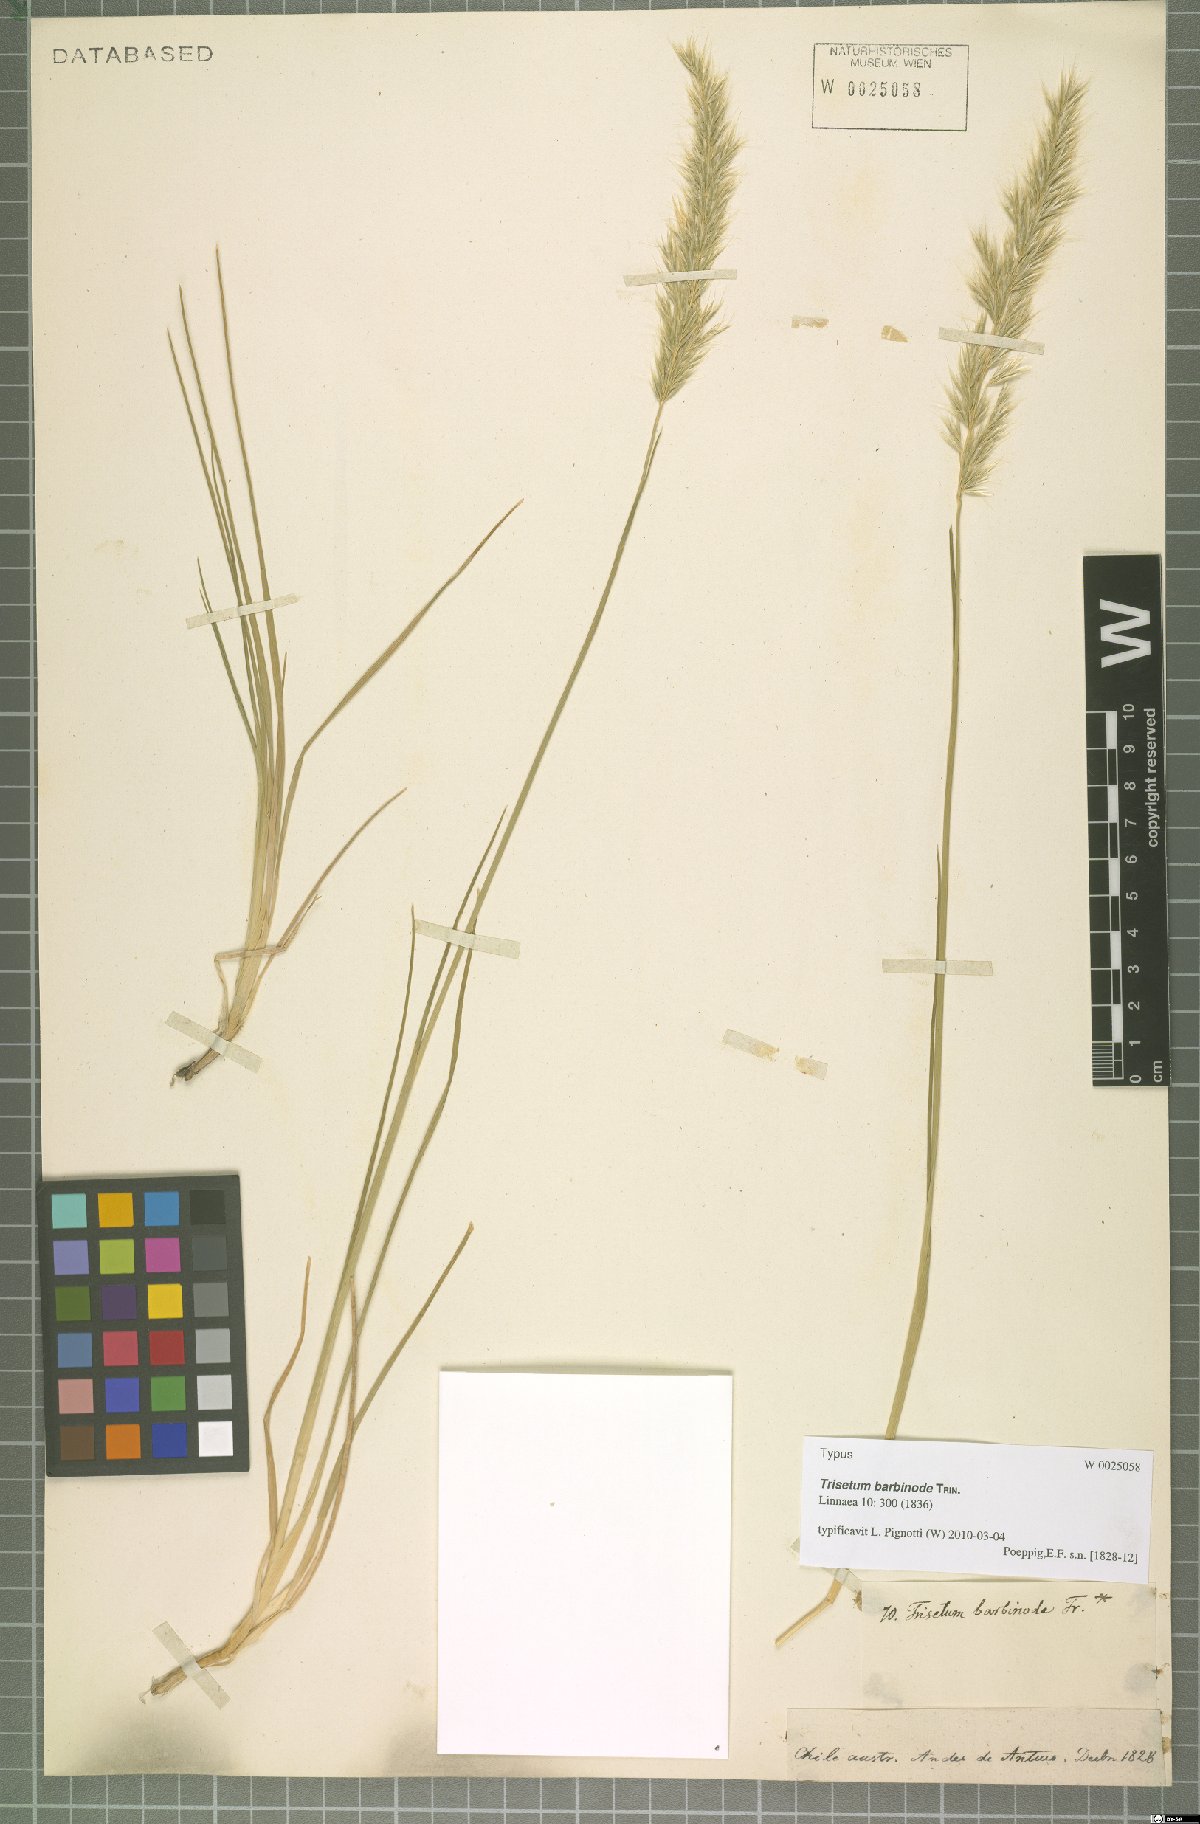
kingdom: Plantae
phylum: Tracheophyta
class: Liliopsida
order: Poales
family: Poaceae
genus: Koeleria
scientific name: Koeleria barbinodis
